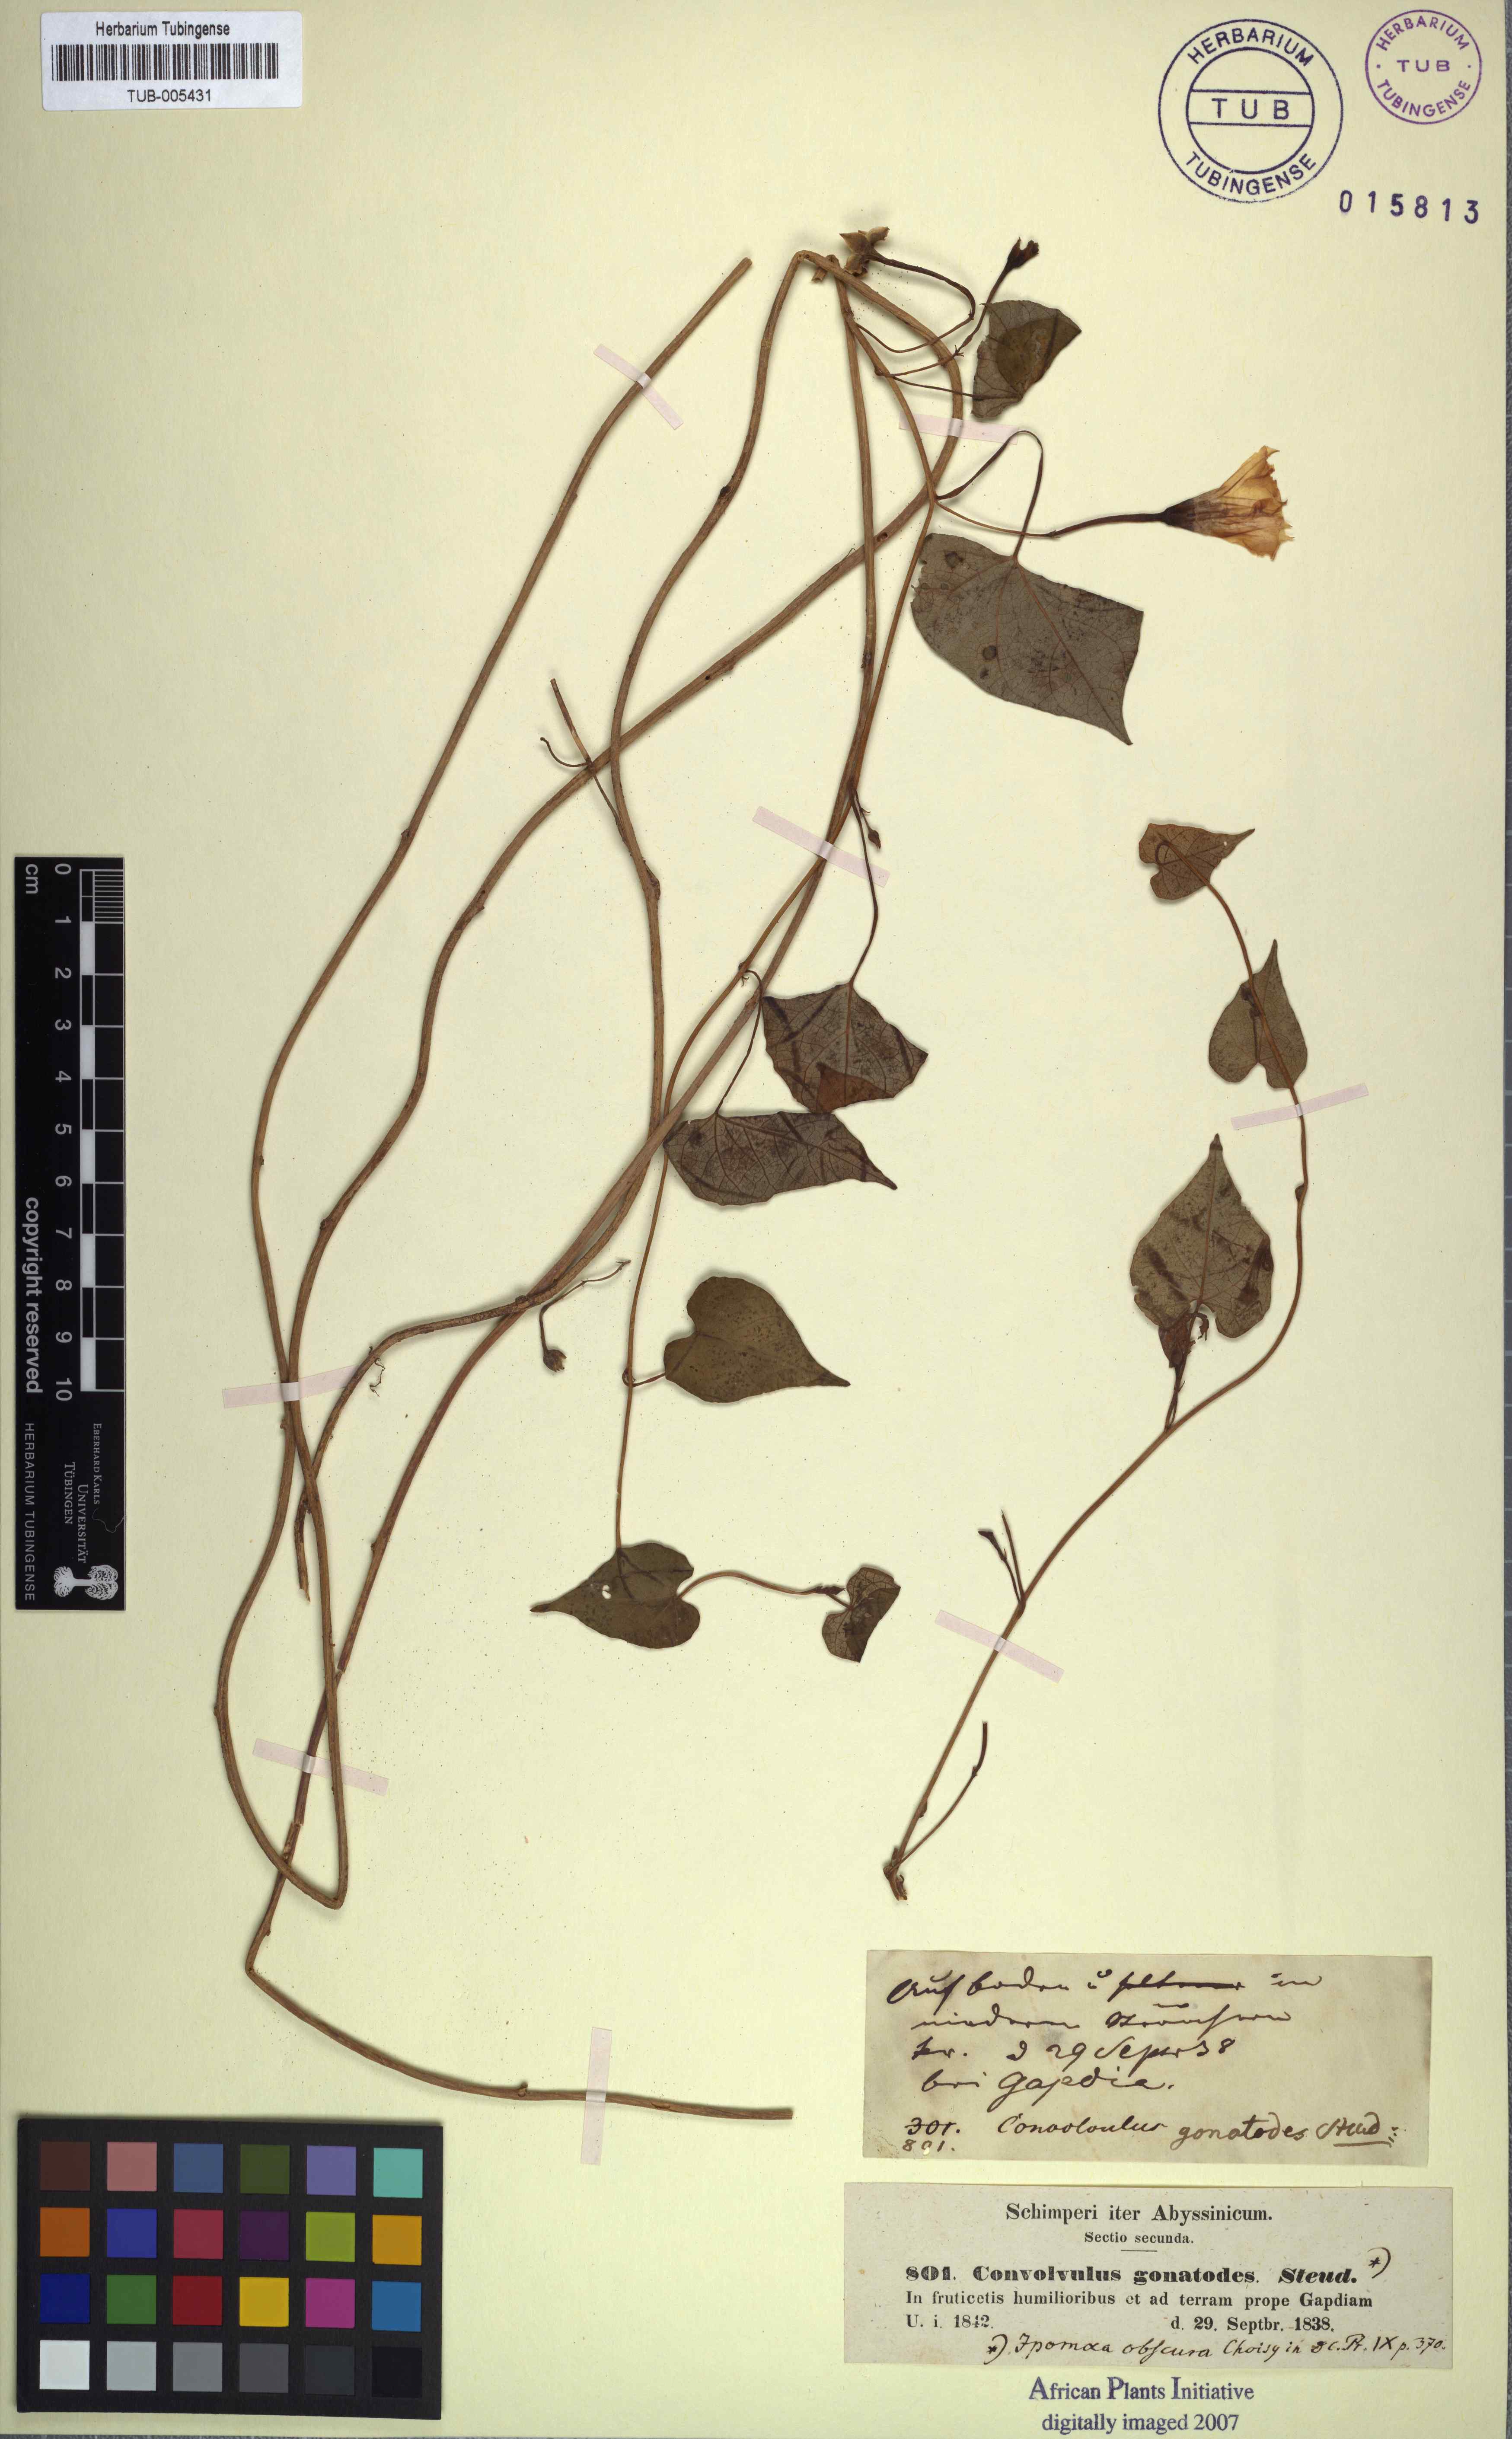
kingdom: Plantae
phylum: Tracheophyta
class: Magnoliopsida
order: Solanales
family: Convolvulaceae
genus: Ipomoea
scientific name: Ipomoea obscura
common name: Obscure morning-glory
